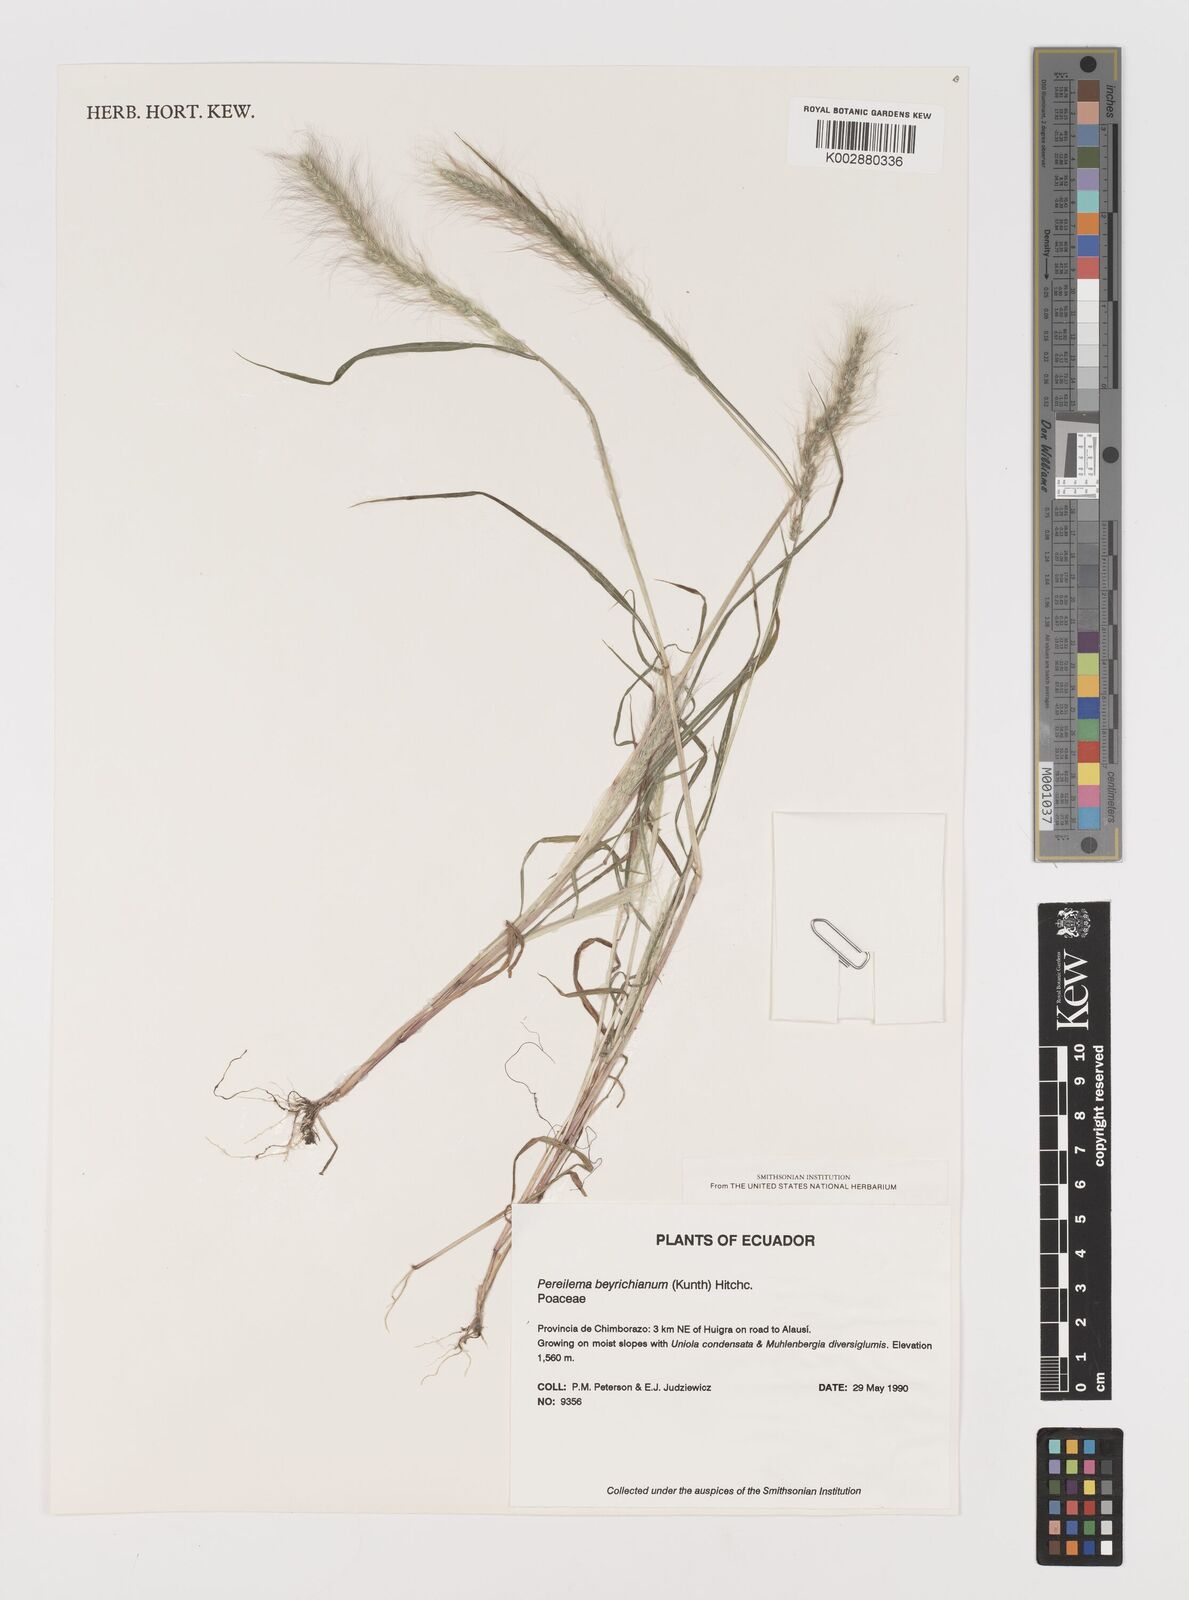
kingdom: Plantae
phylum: Tracheophyta
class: Liliopsida
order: Poales
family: Poaceae
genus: Muhlenbergia
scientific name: Muhlenbergia beyrichiana
